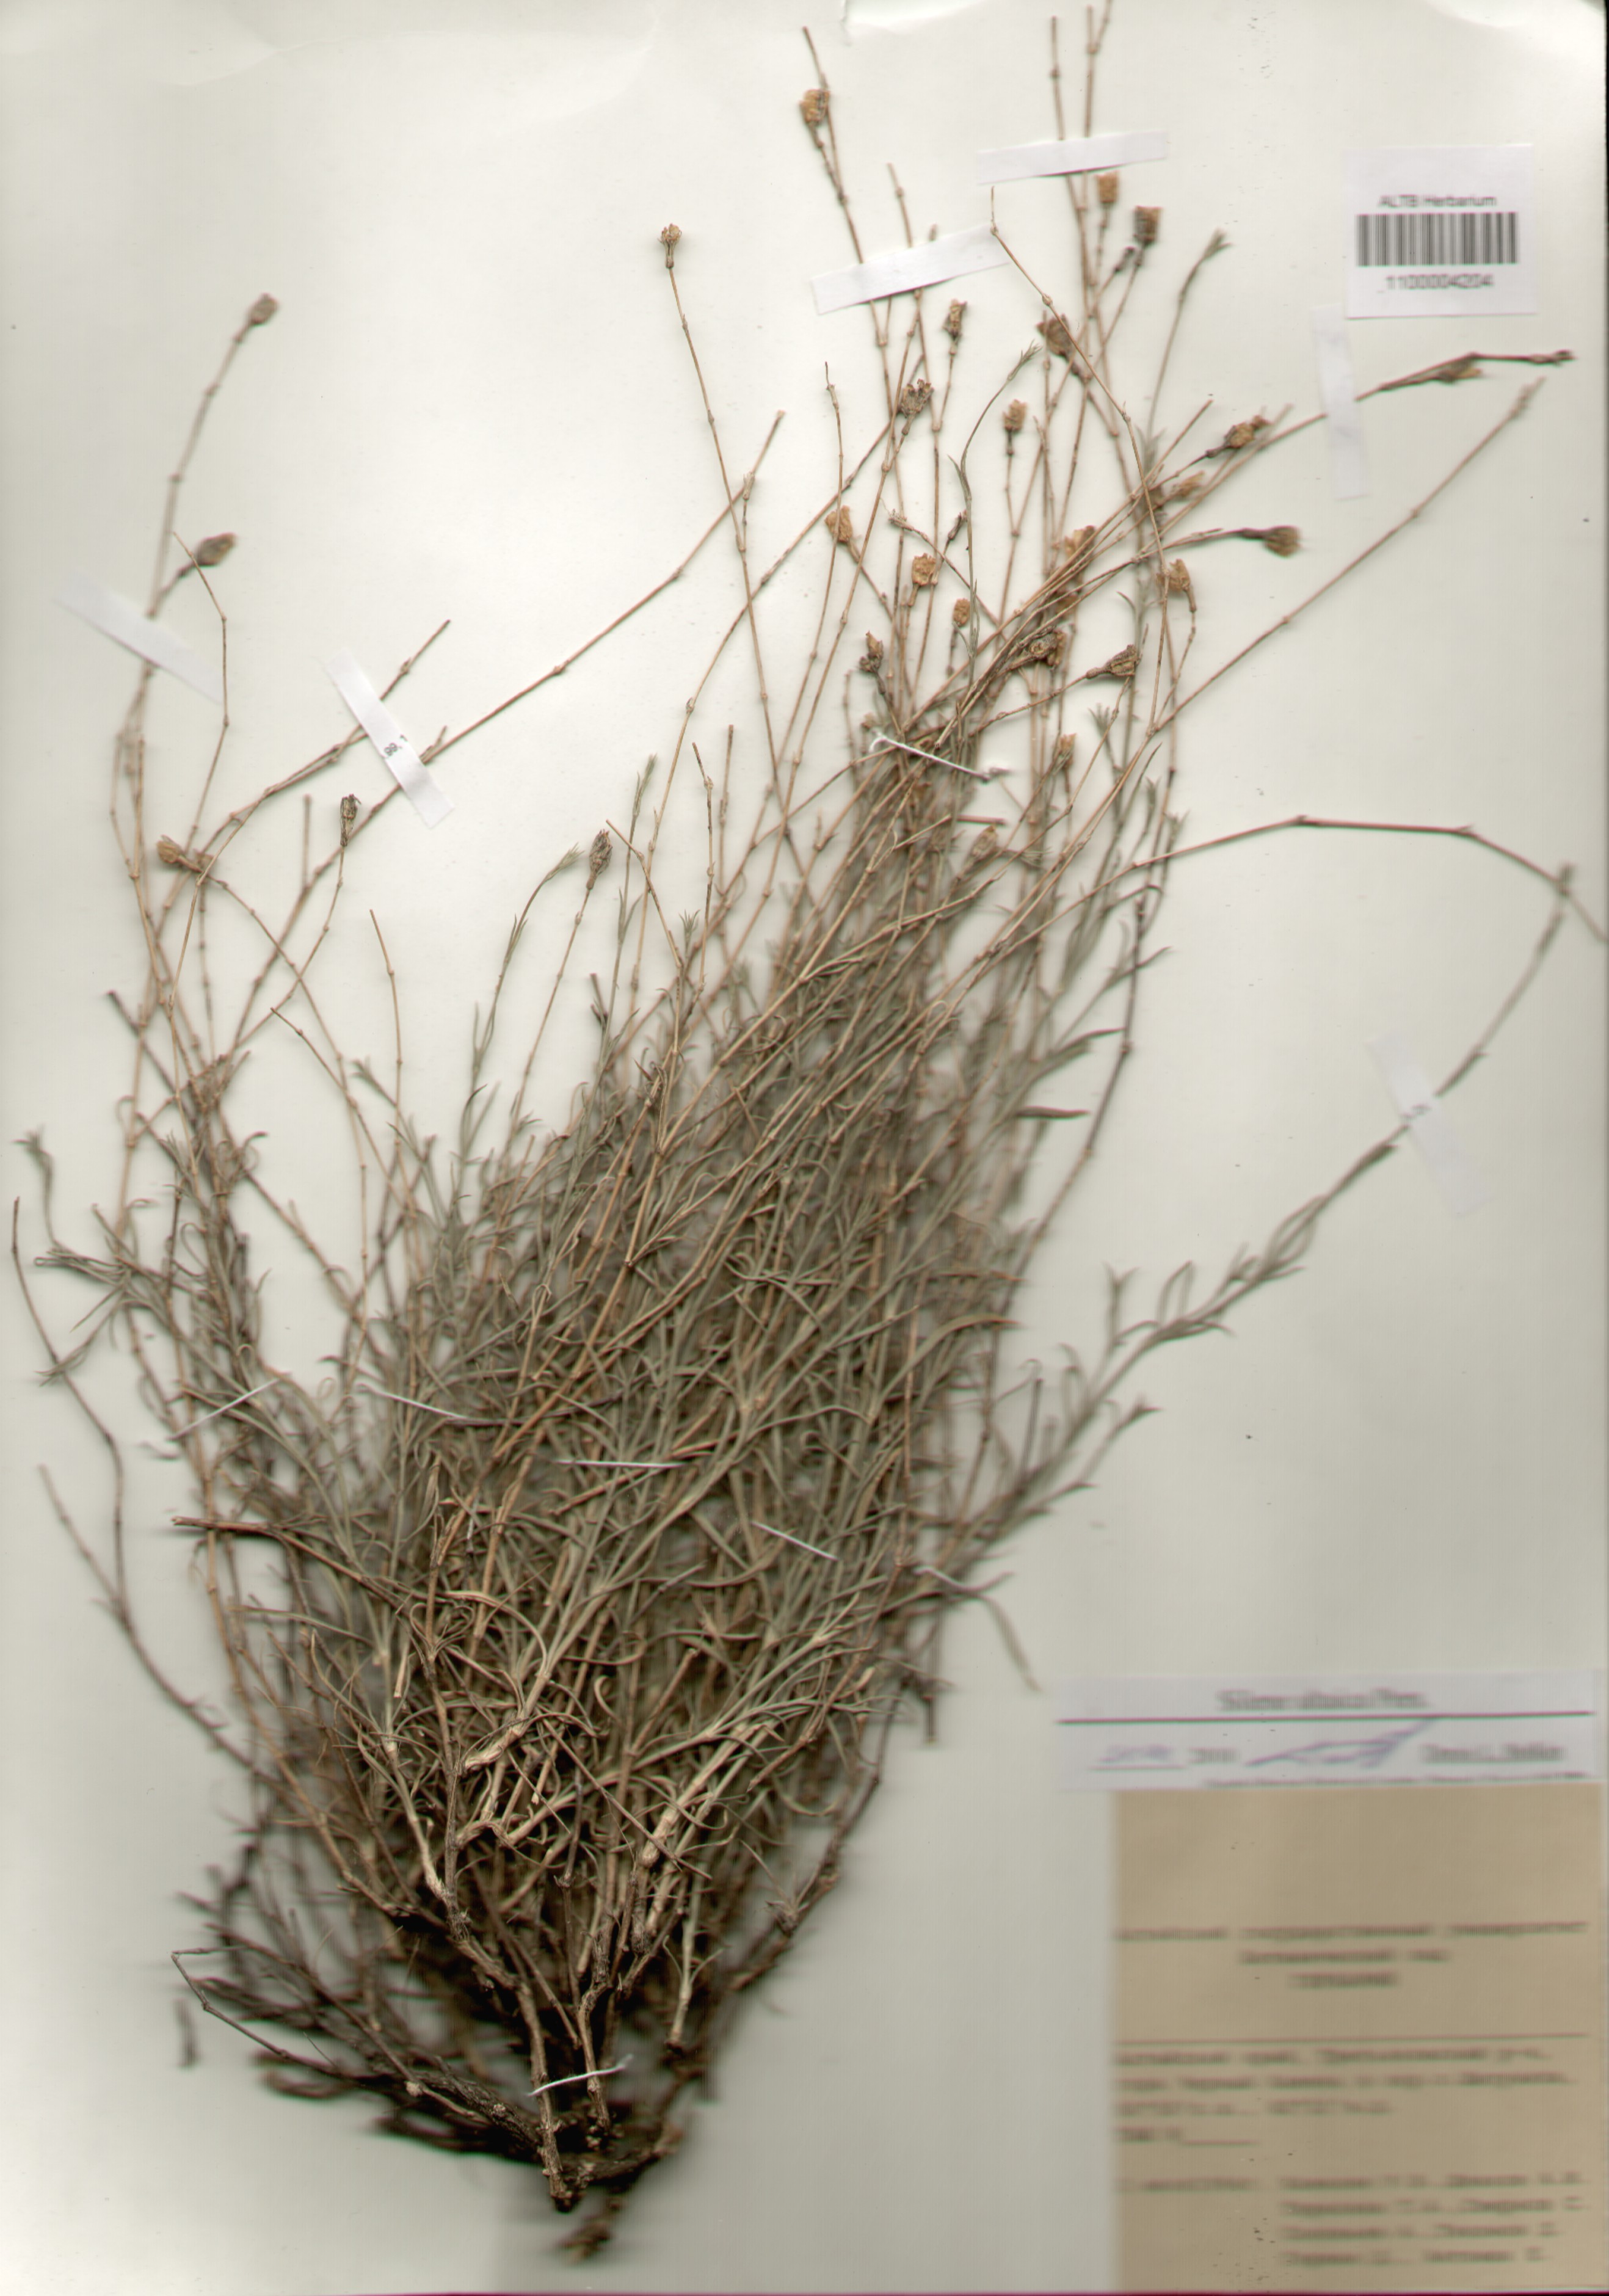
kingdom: Plantae
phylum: Tracheophyta
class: Magnoliopsida
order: Caryophyllales
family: Caryophyllaceae
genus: Silene
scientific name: Silene altaica
